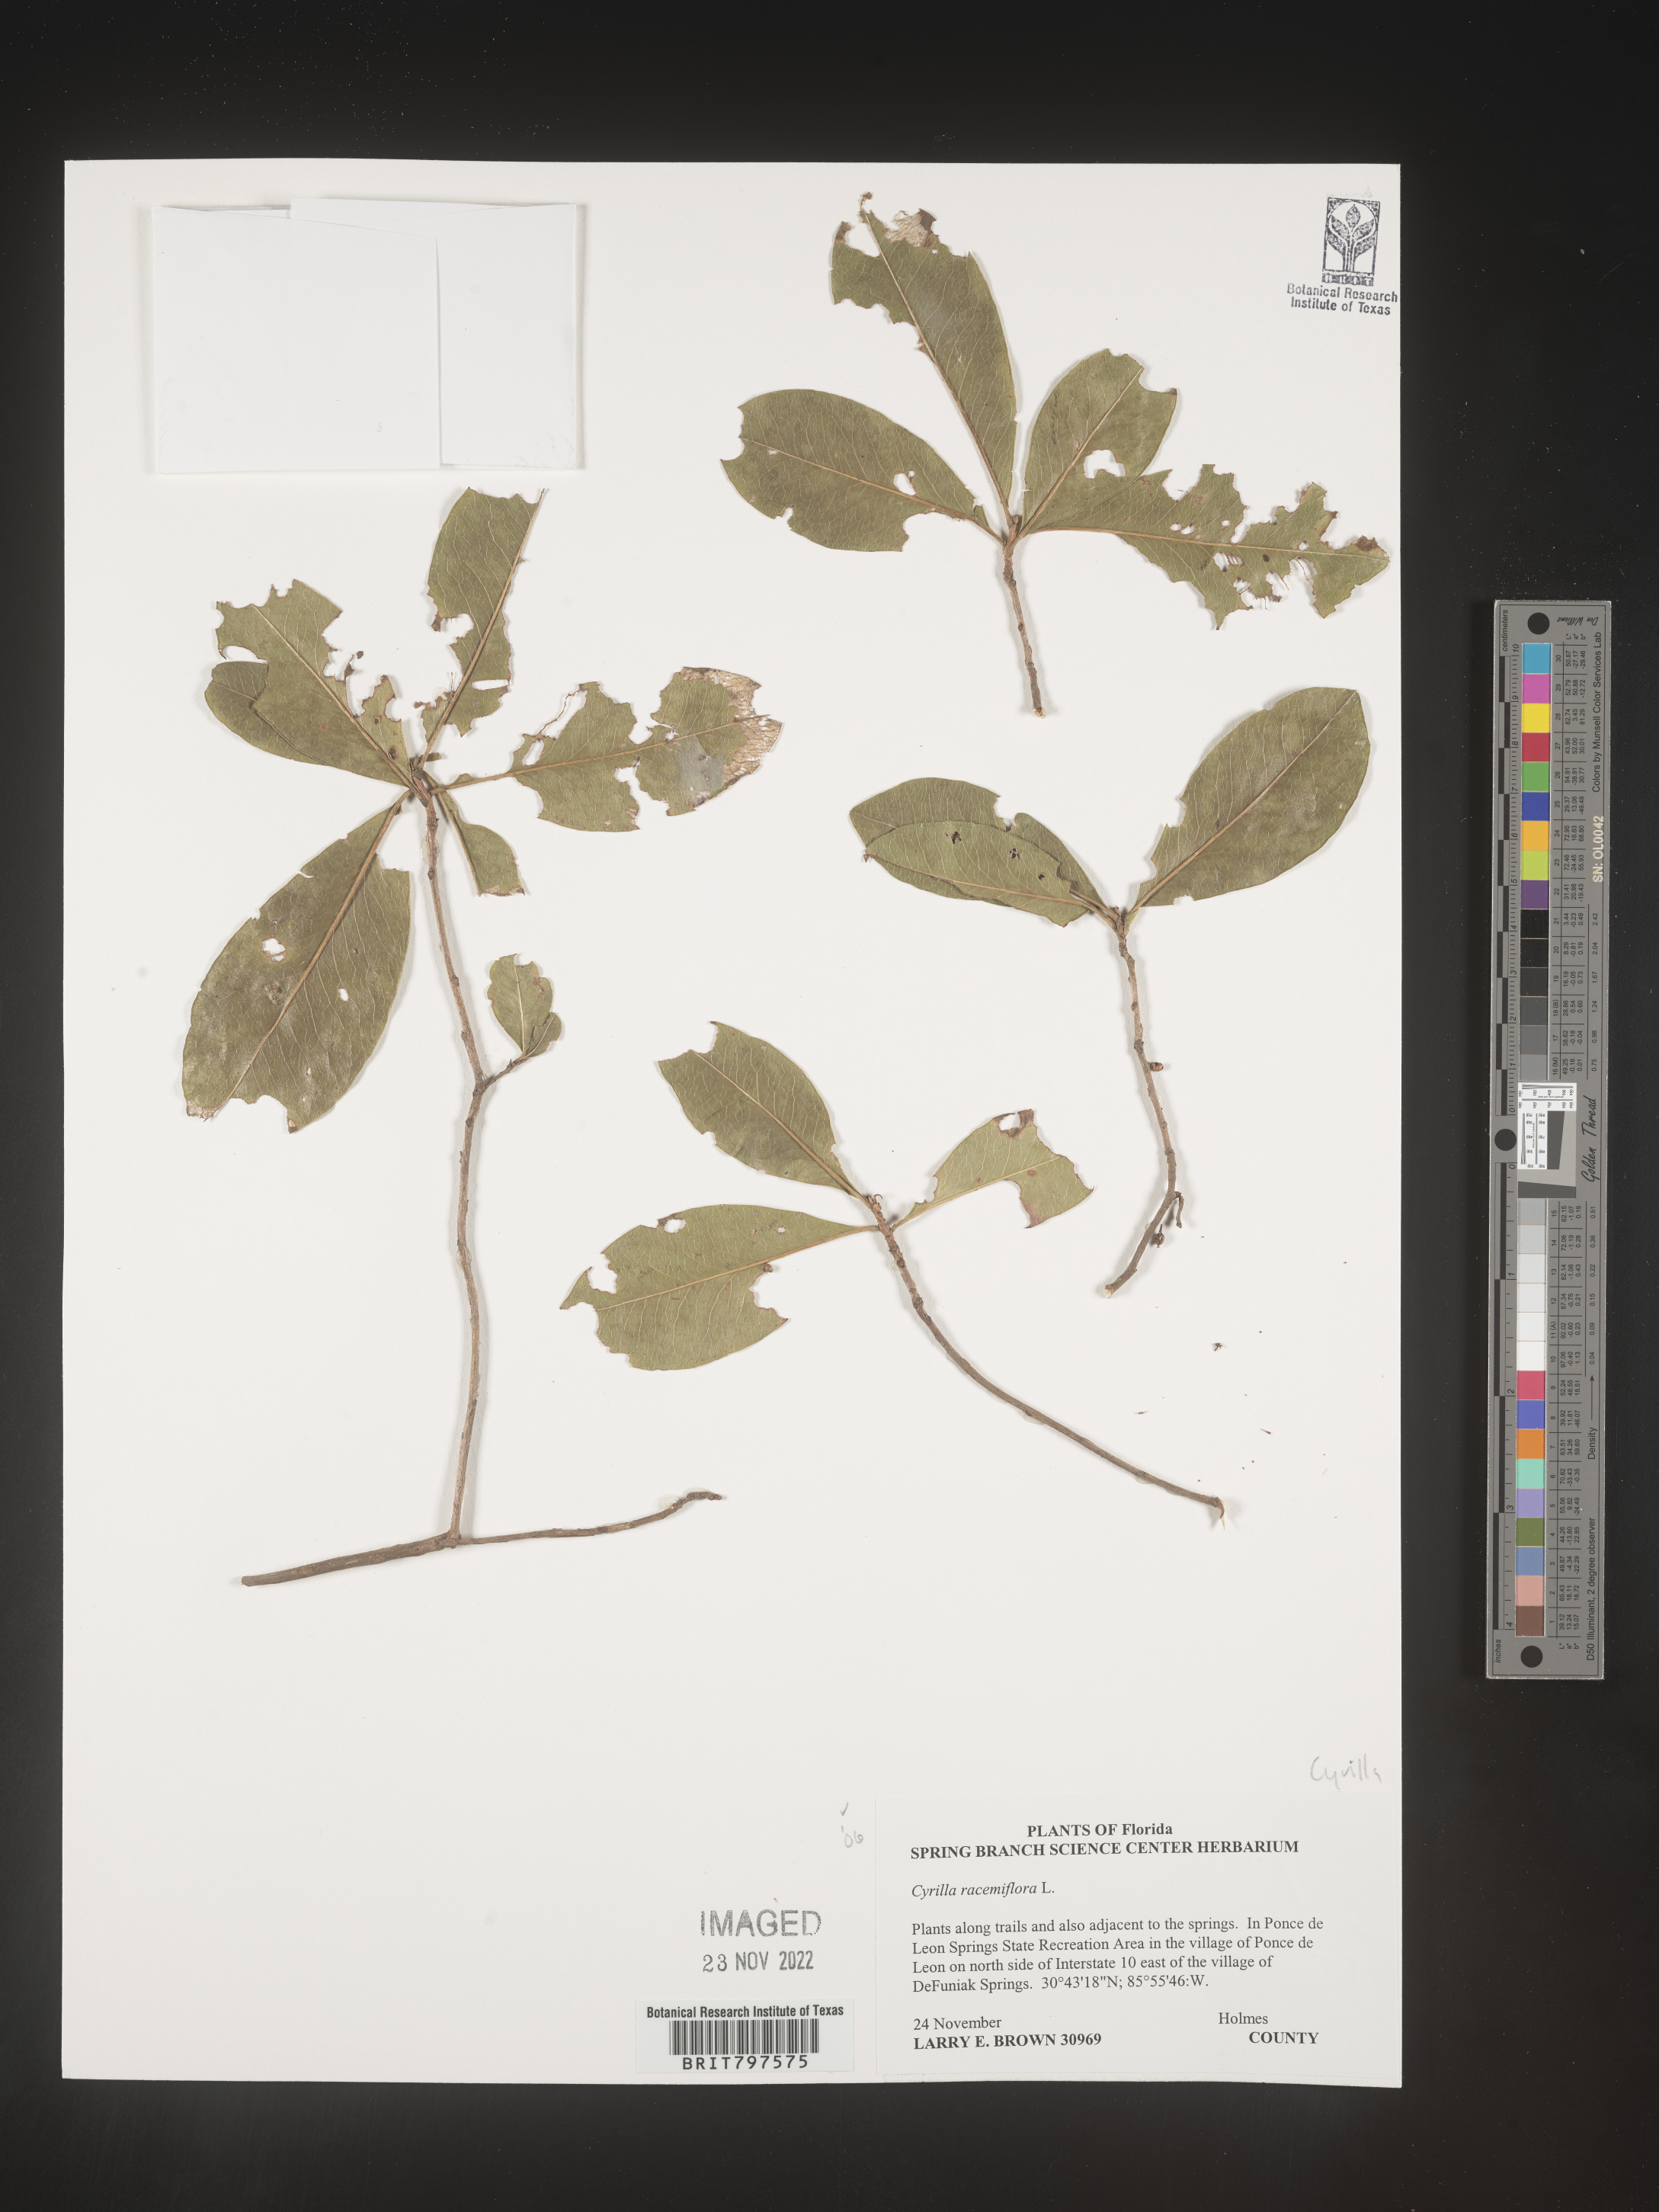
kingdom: Plantae
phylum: Tracheophyta
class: Magnoliopsida
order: Ericales
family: Cyrillaceae
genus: Cyrilla
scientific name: Cyrilla racemiflora
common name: Black titi
